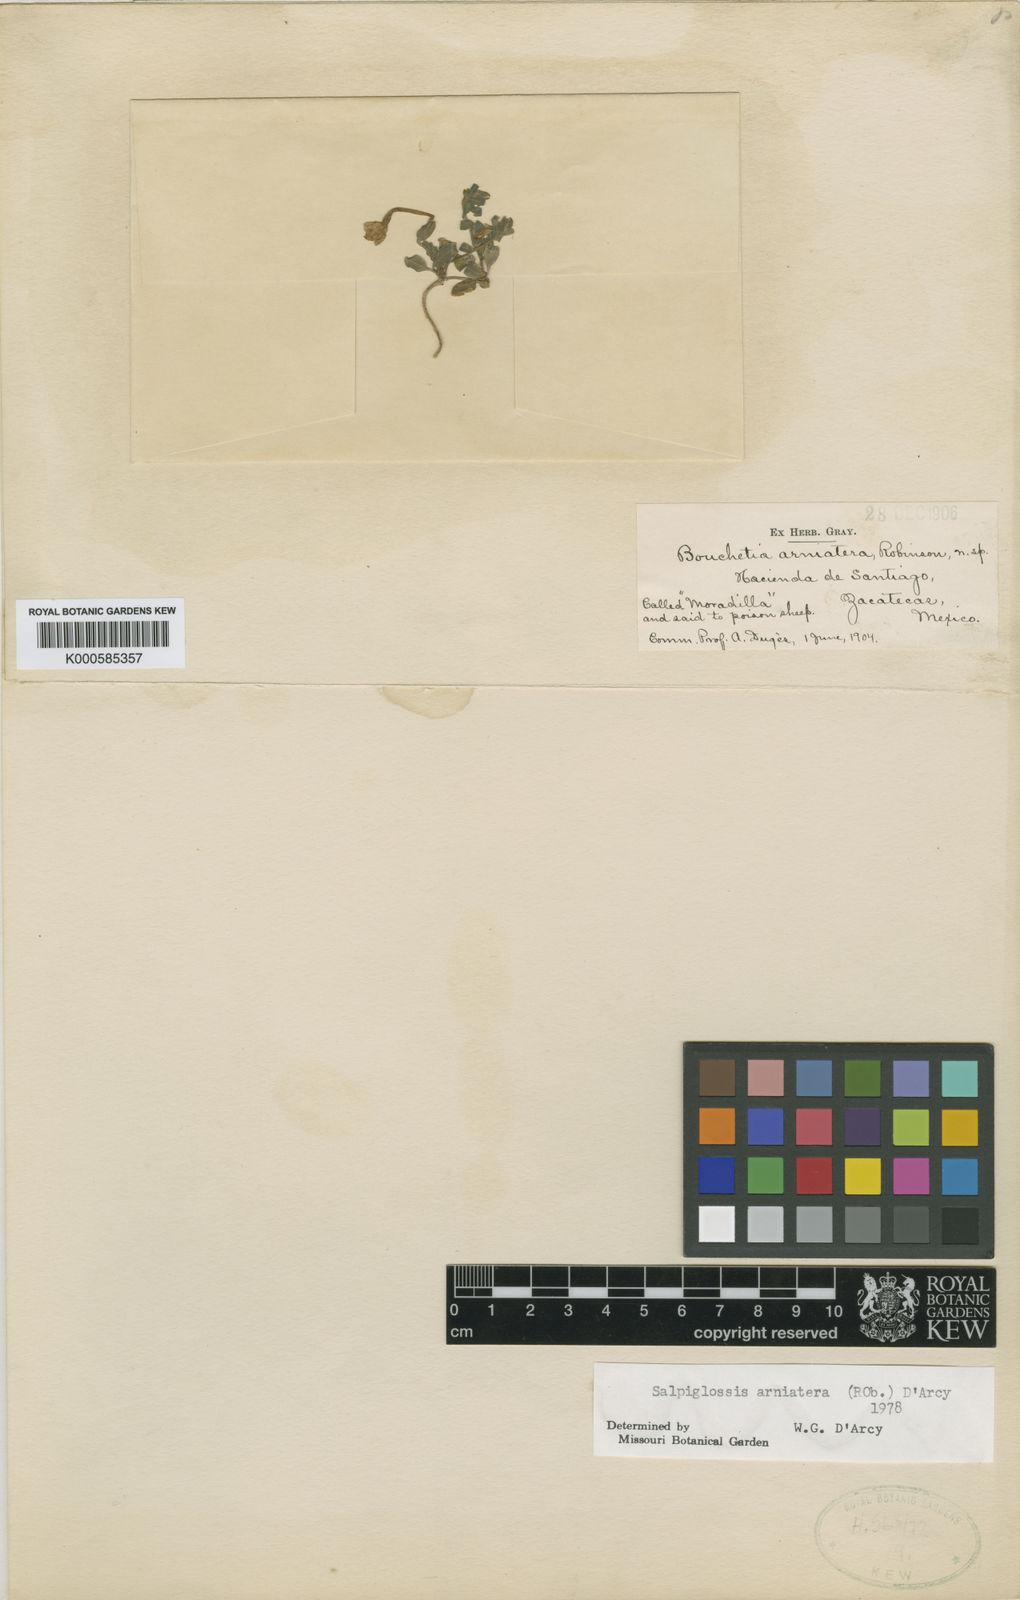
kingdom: Plantae
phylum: Tracheophyta
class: Magnoliopsida
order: Solanales
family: Solanaceae
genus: Salpiglossis
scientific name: Salpiglossis arniatera
